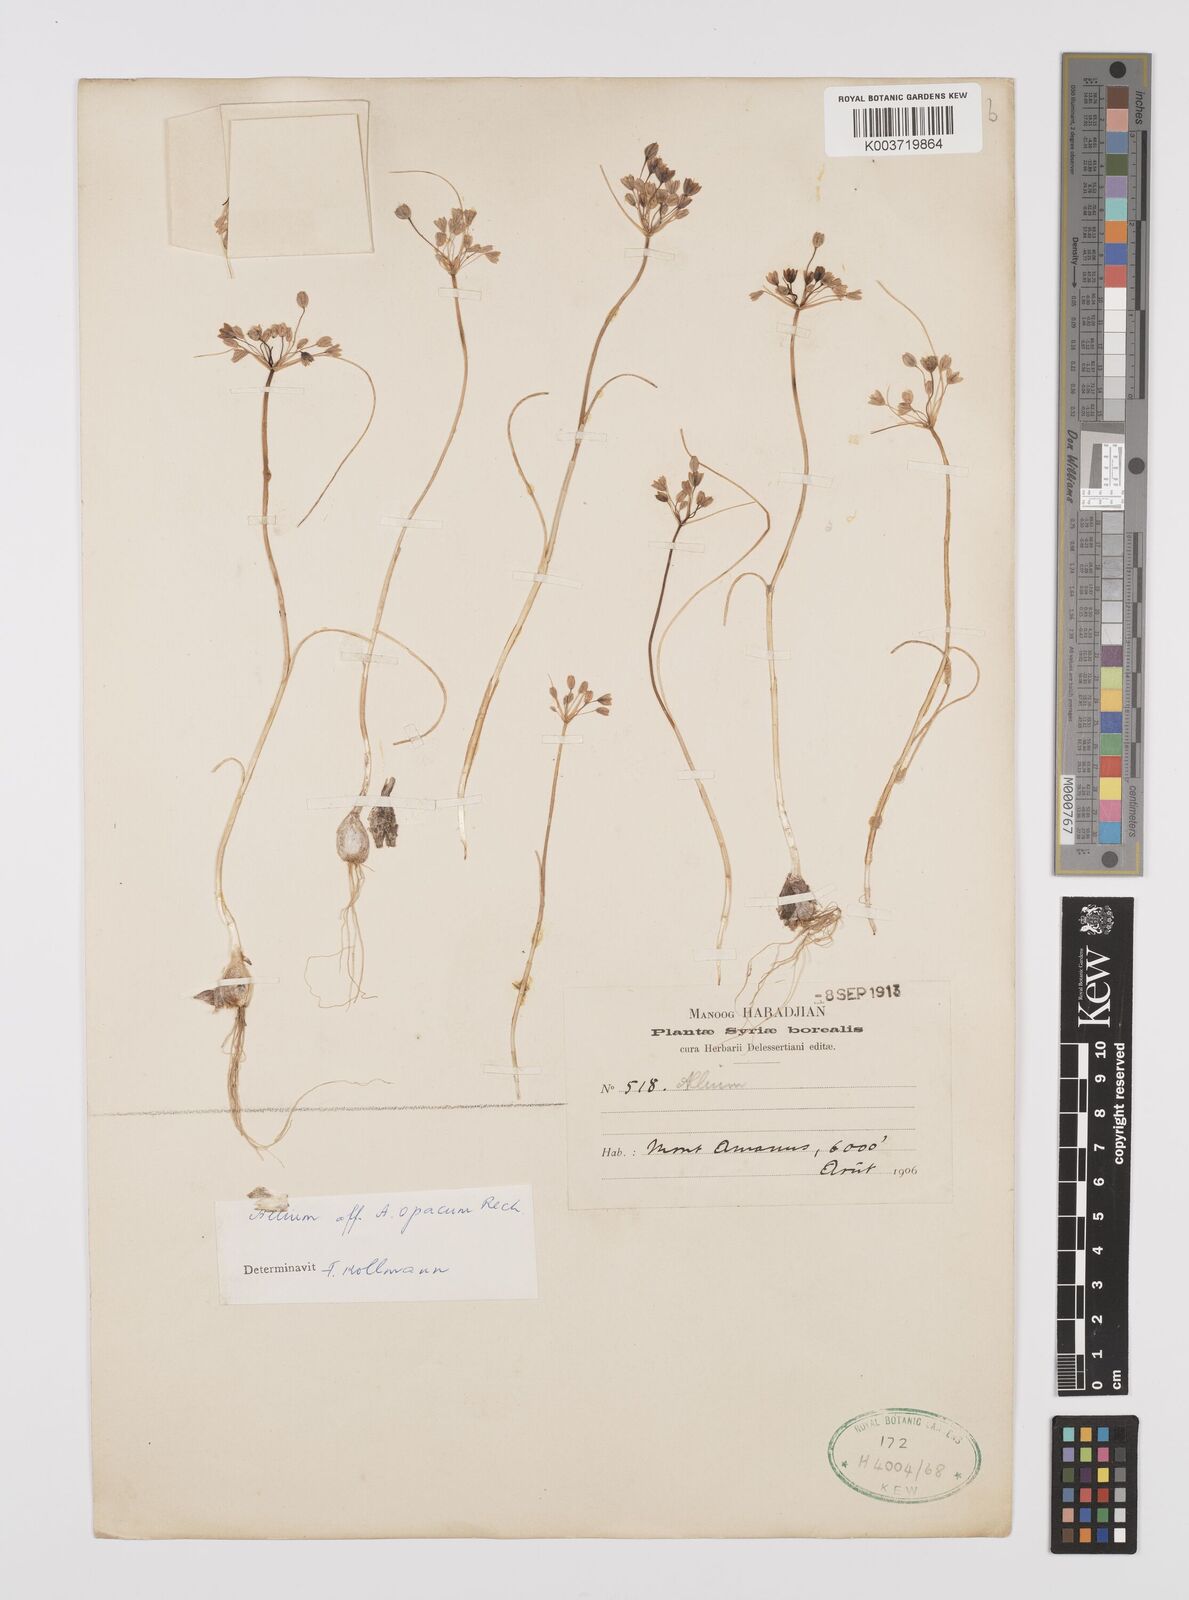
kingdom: Plantae
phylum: Tracheophyta
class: Liliopsida
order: Asparagales
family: Amaryllidaceae
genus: Allium
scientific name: Allium opacum
